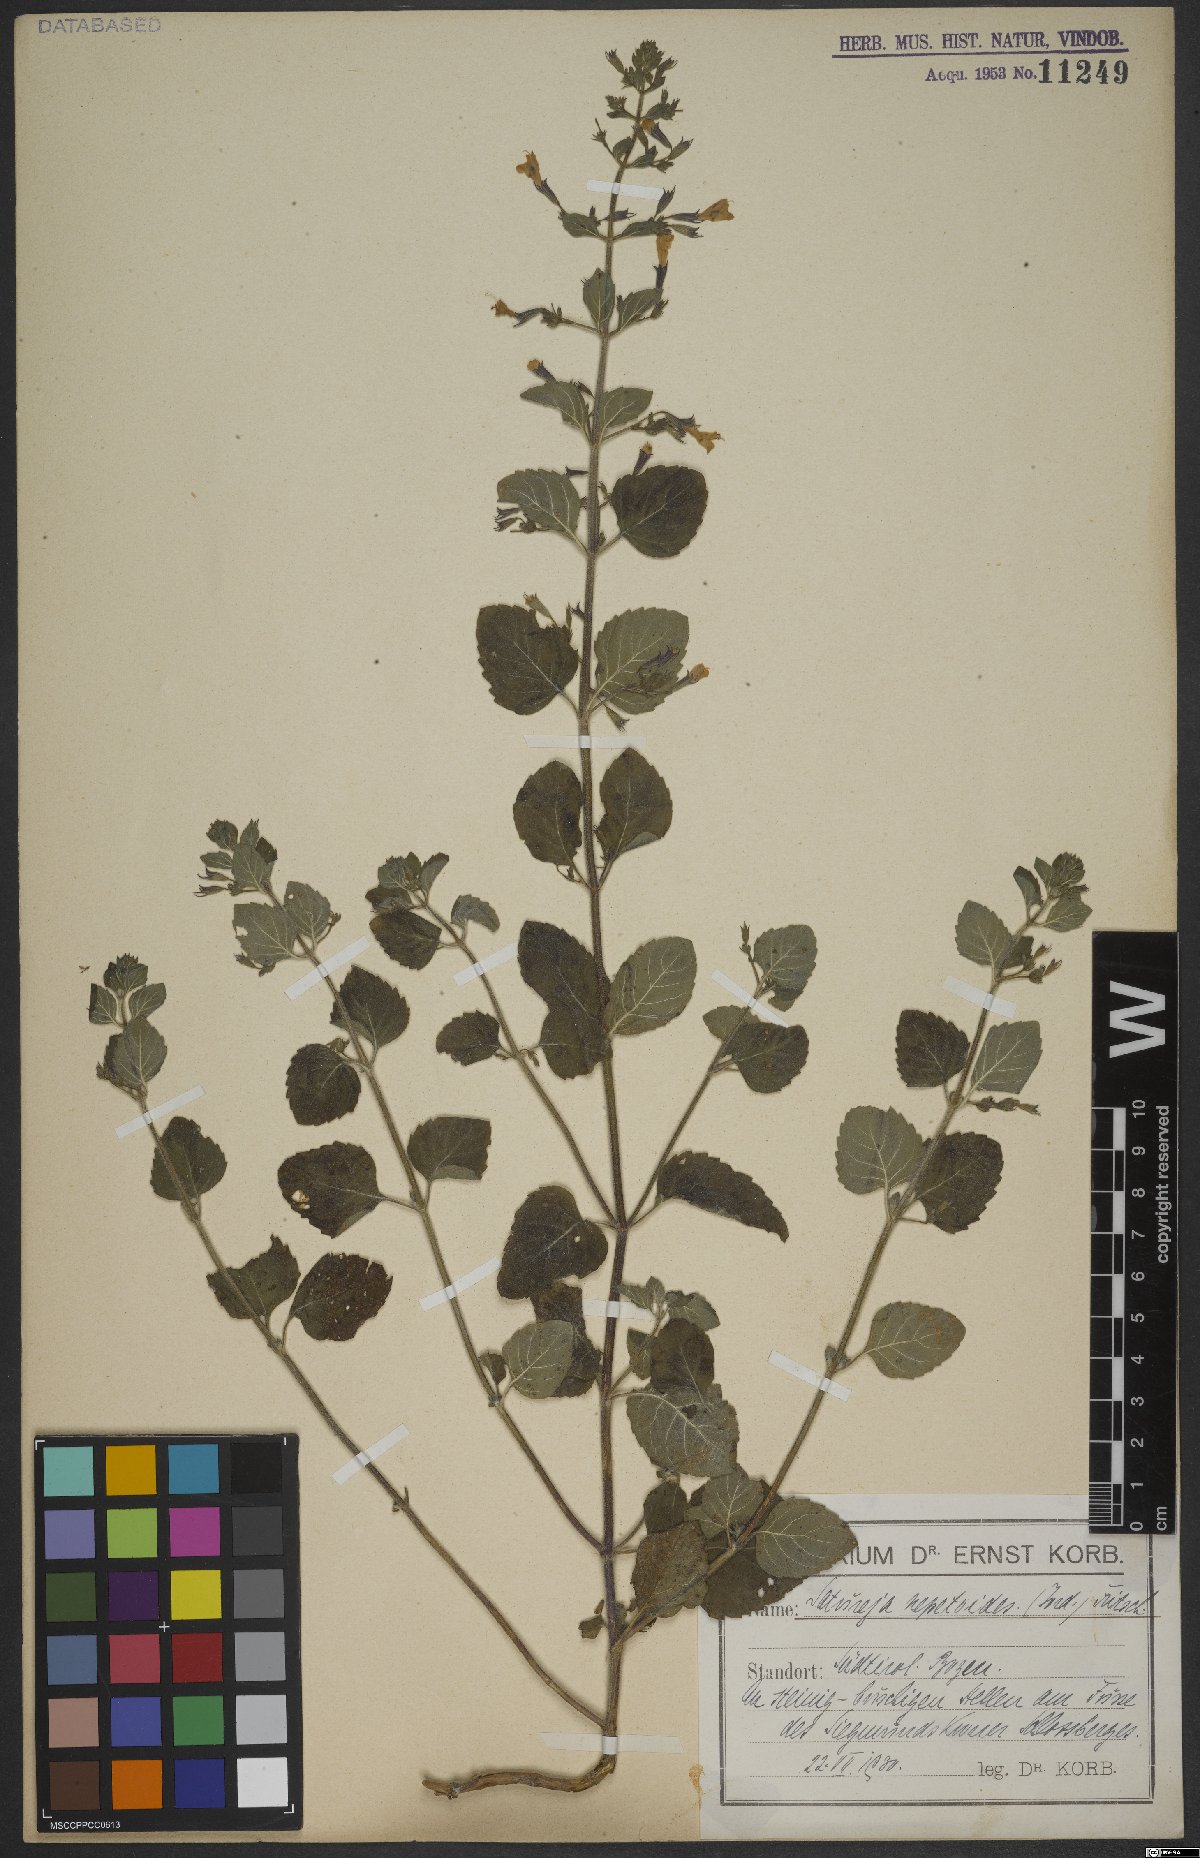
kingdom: Plantae
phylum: Tracheophyta
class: Magnoliopsida
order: Lamiales
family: Lamiaceae
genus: Clinopodium
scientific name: Clinopodium nepeta
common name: Lesser calamint
